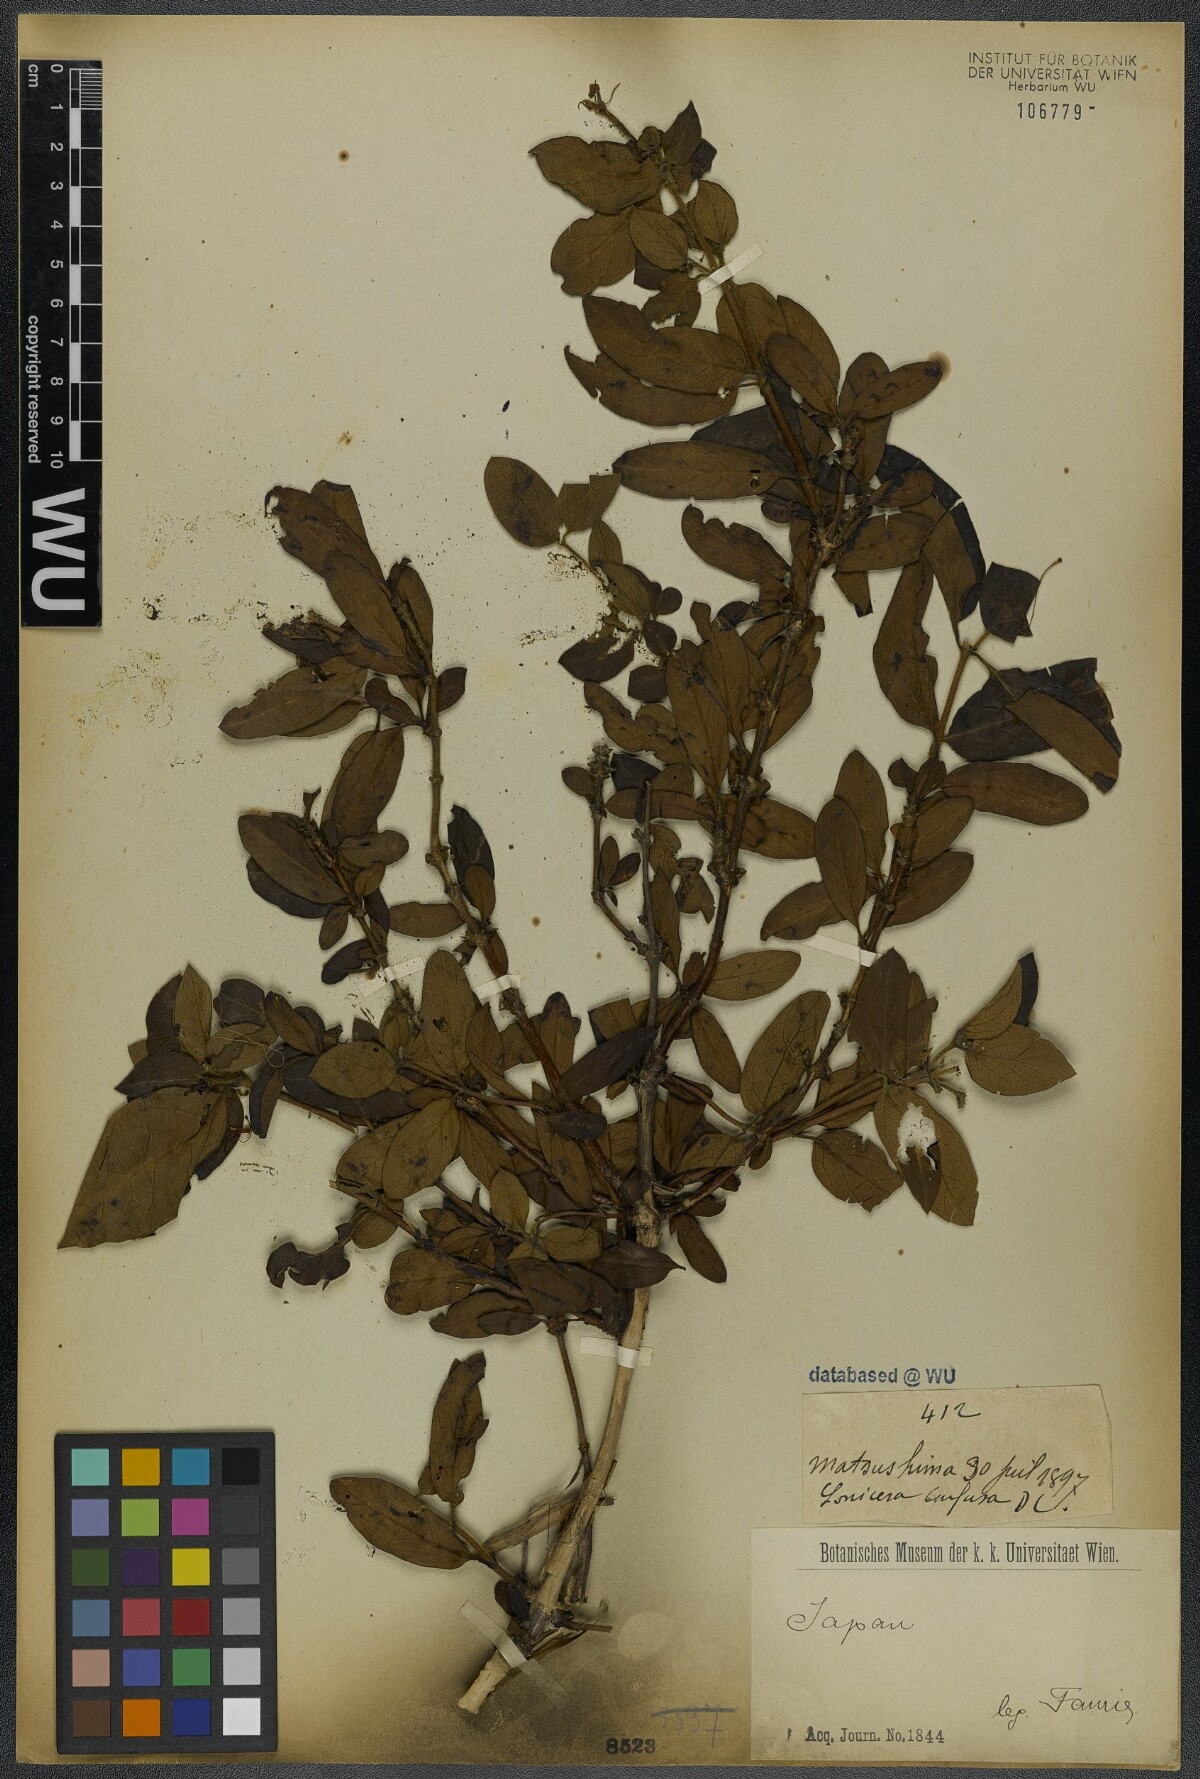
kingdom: Plantae
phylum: Tracheophyta
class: Magnoliopsida
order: Dipsacales
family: Caprifoliaceae
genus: Lonicera
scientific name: Lonicera confusa
